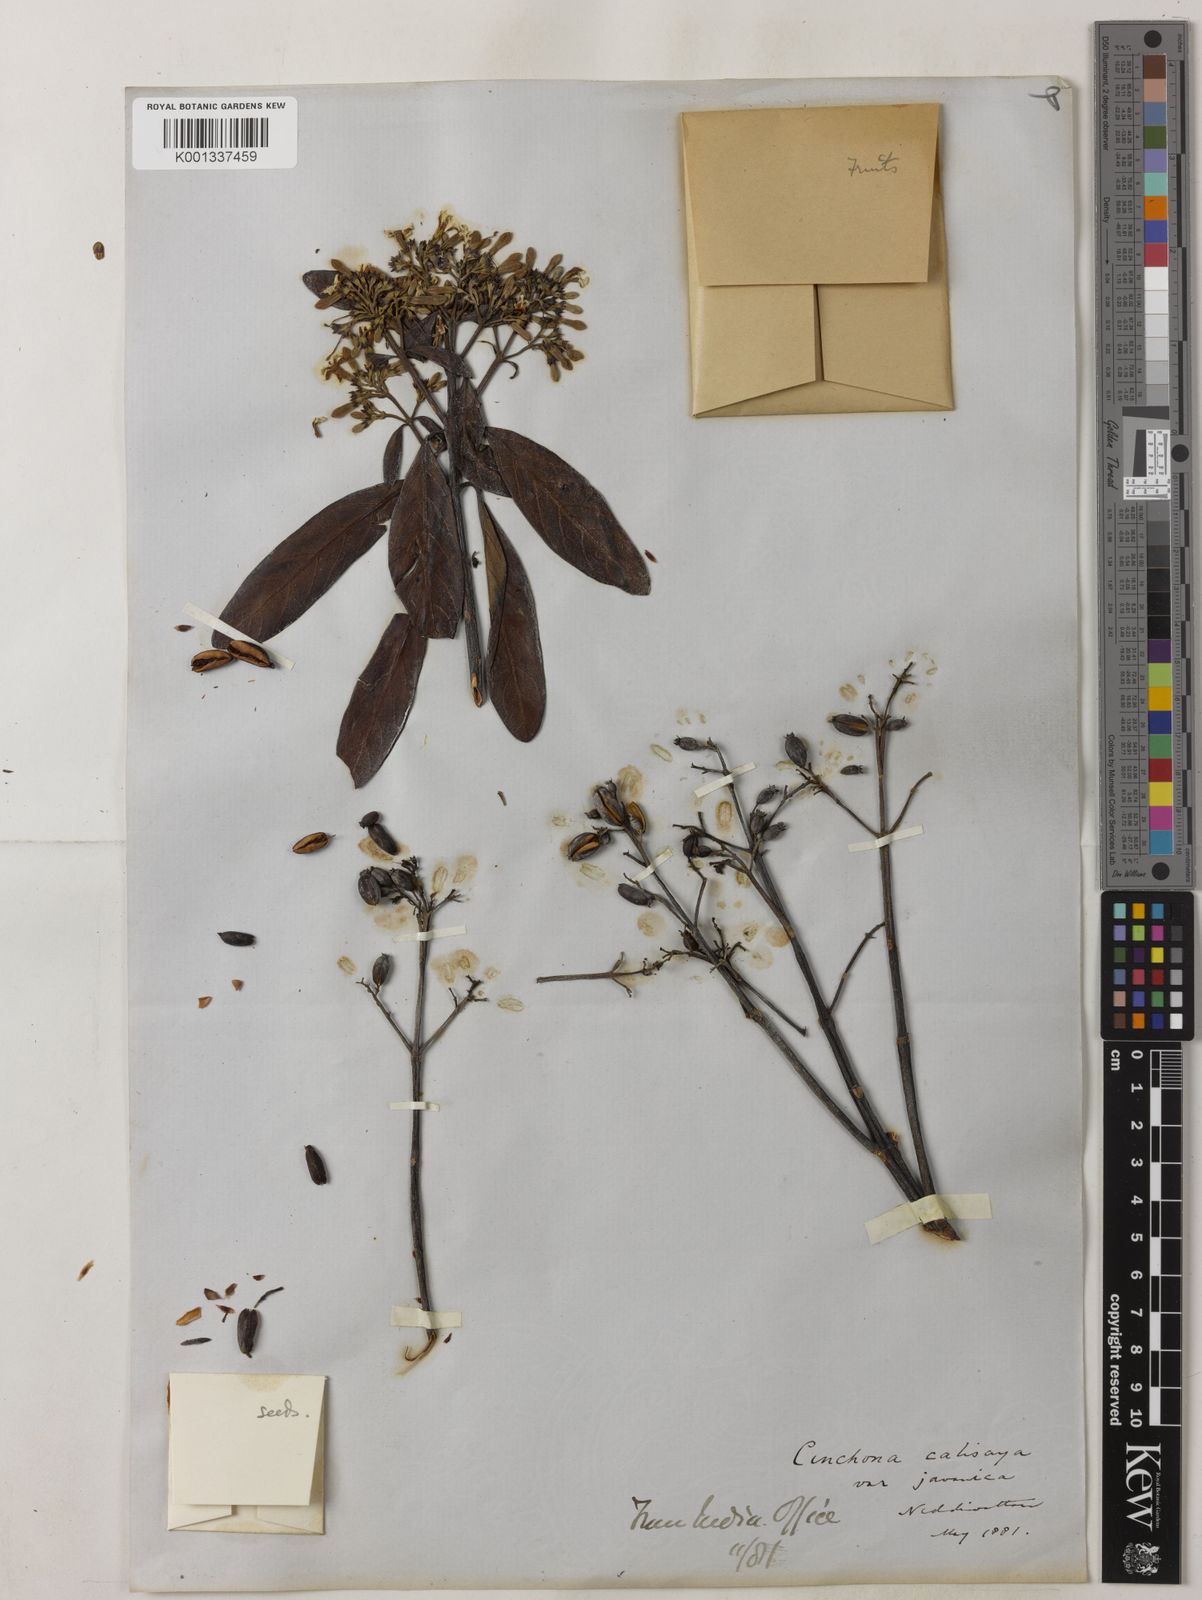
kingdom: Plantae
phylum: Tracheophyta
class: Magnoliopsida
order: Gentianales
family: Rubiaceae
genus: Cinchona
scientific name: Cinchona calisaya
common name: Ledgerbark
